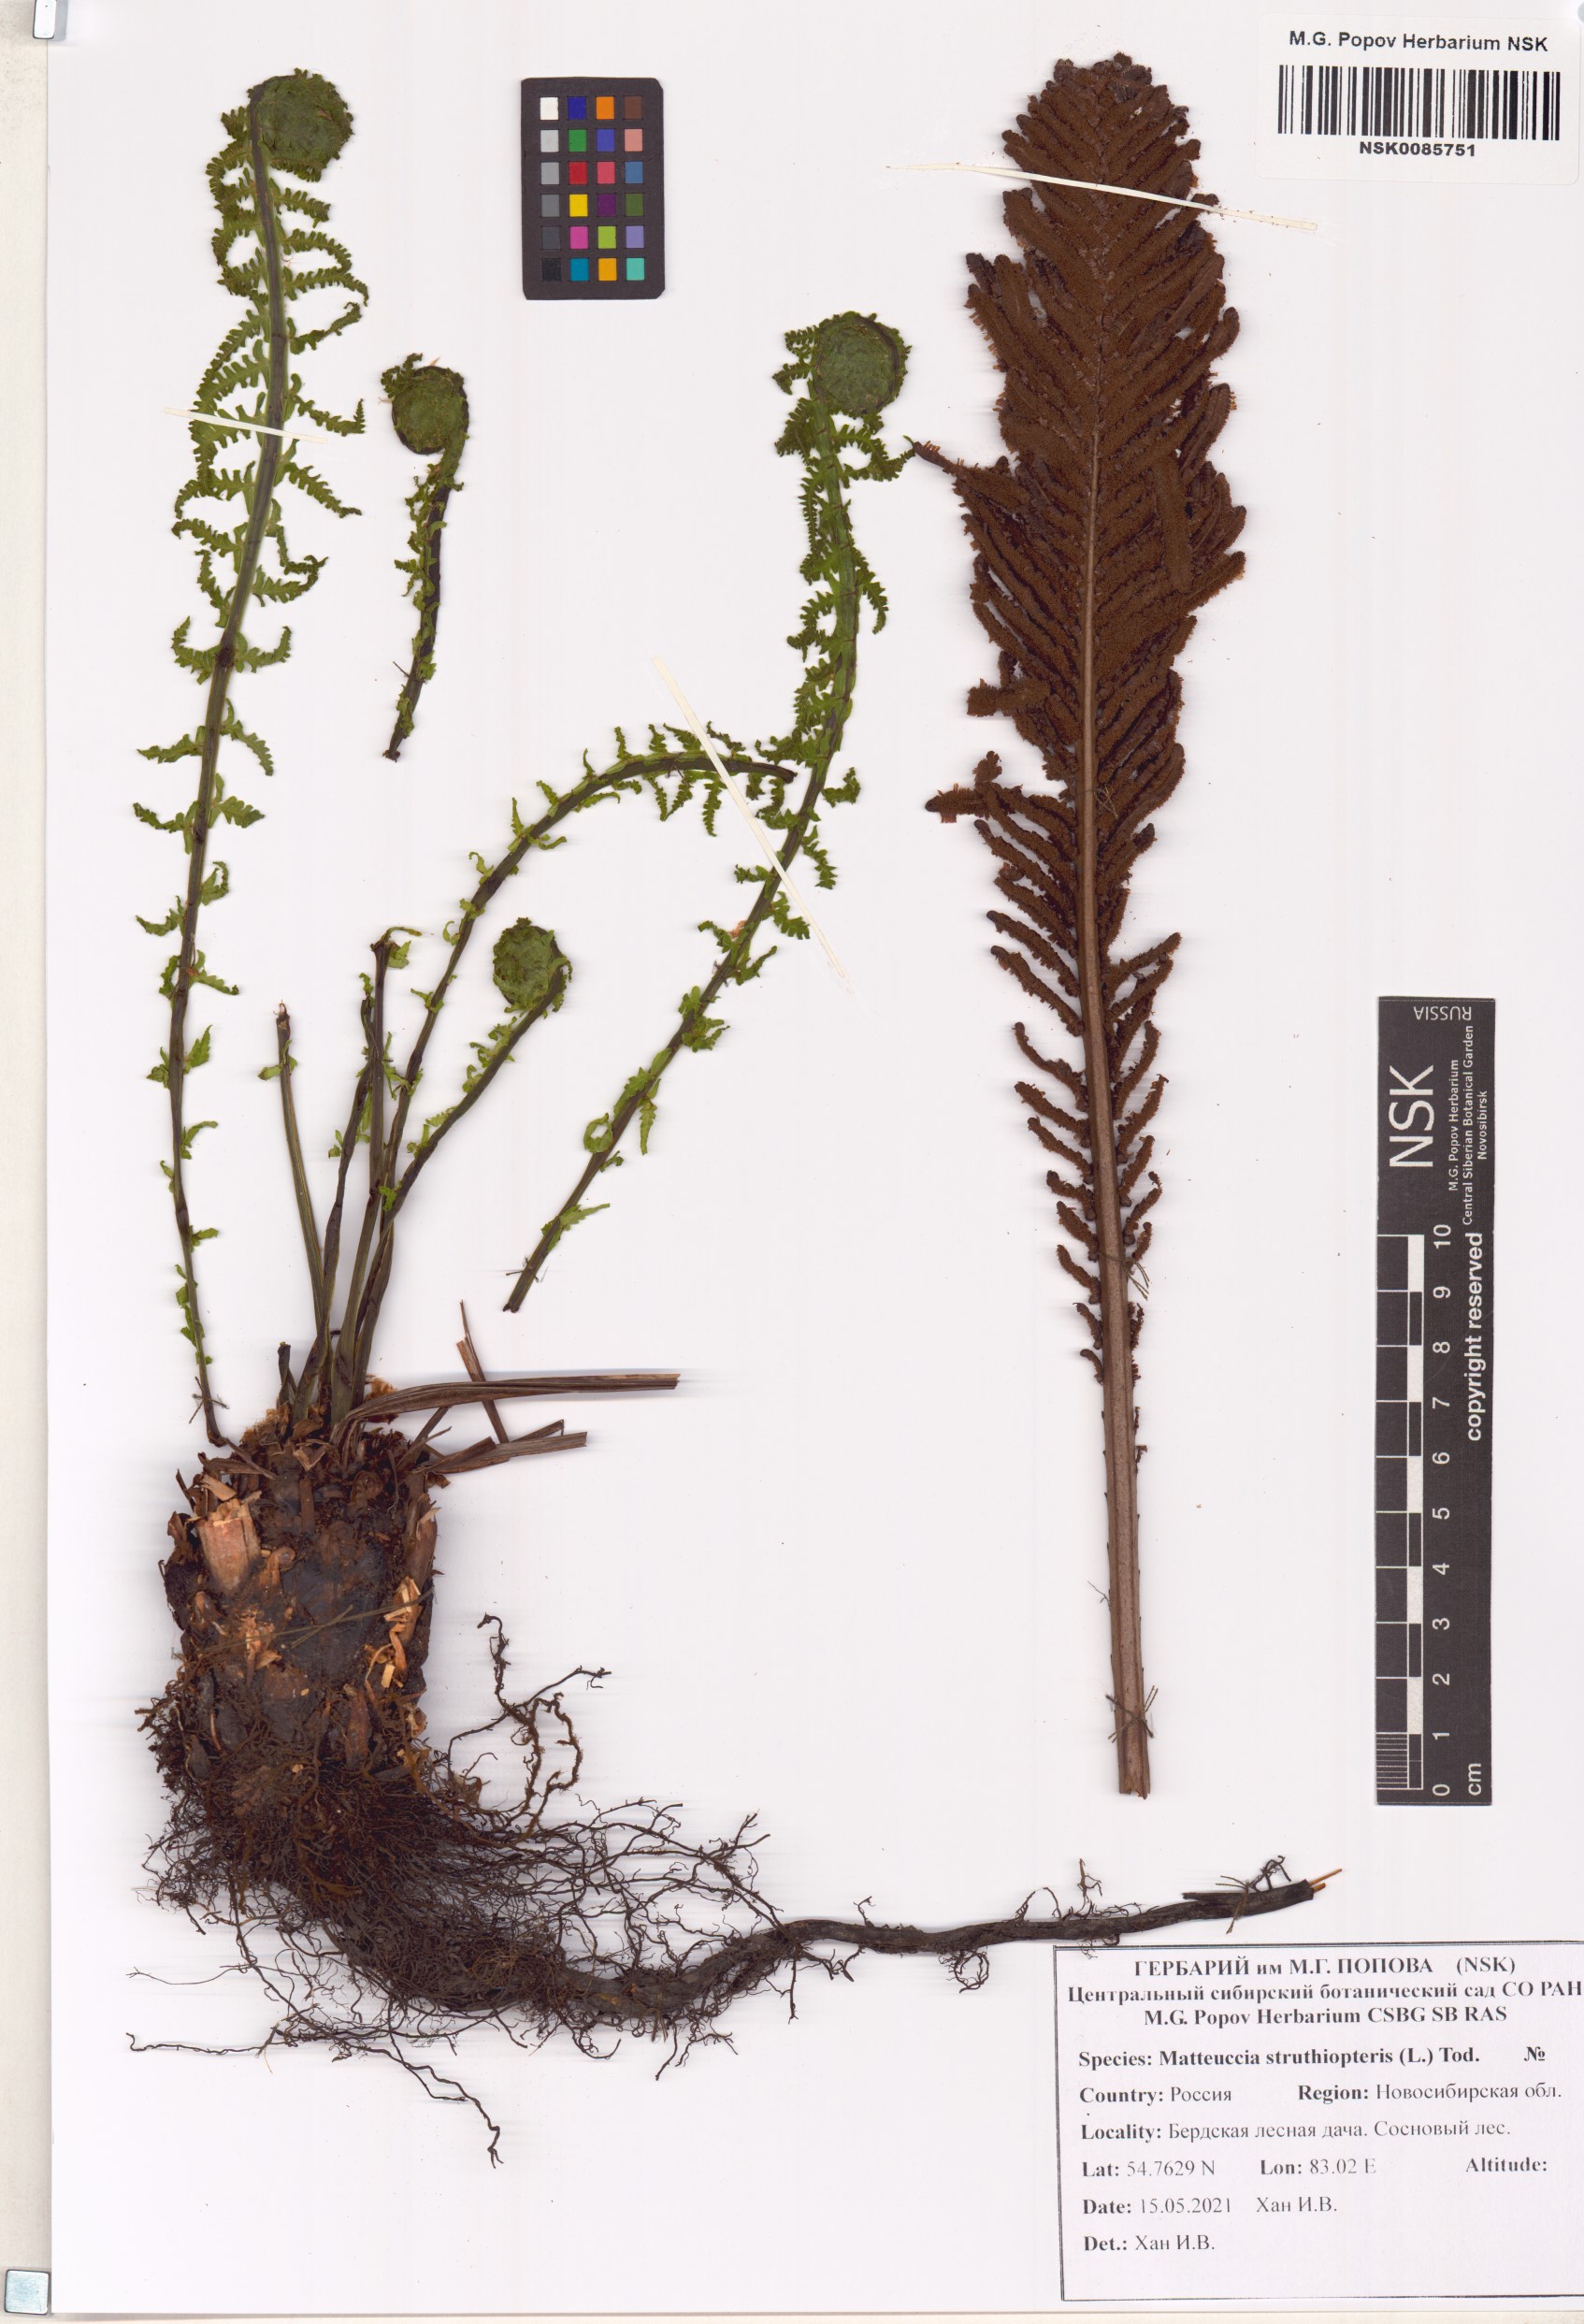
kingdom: Plantae
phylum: Tracheophyta
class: Polypodiopsida
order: Polypodiales
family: Onocleaceae
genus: Matteuccia
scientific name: Matteuccia struthiopteris
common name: Ostrich fern
